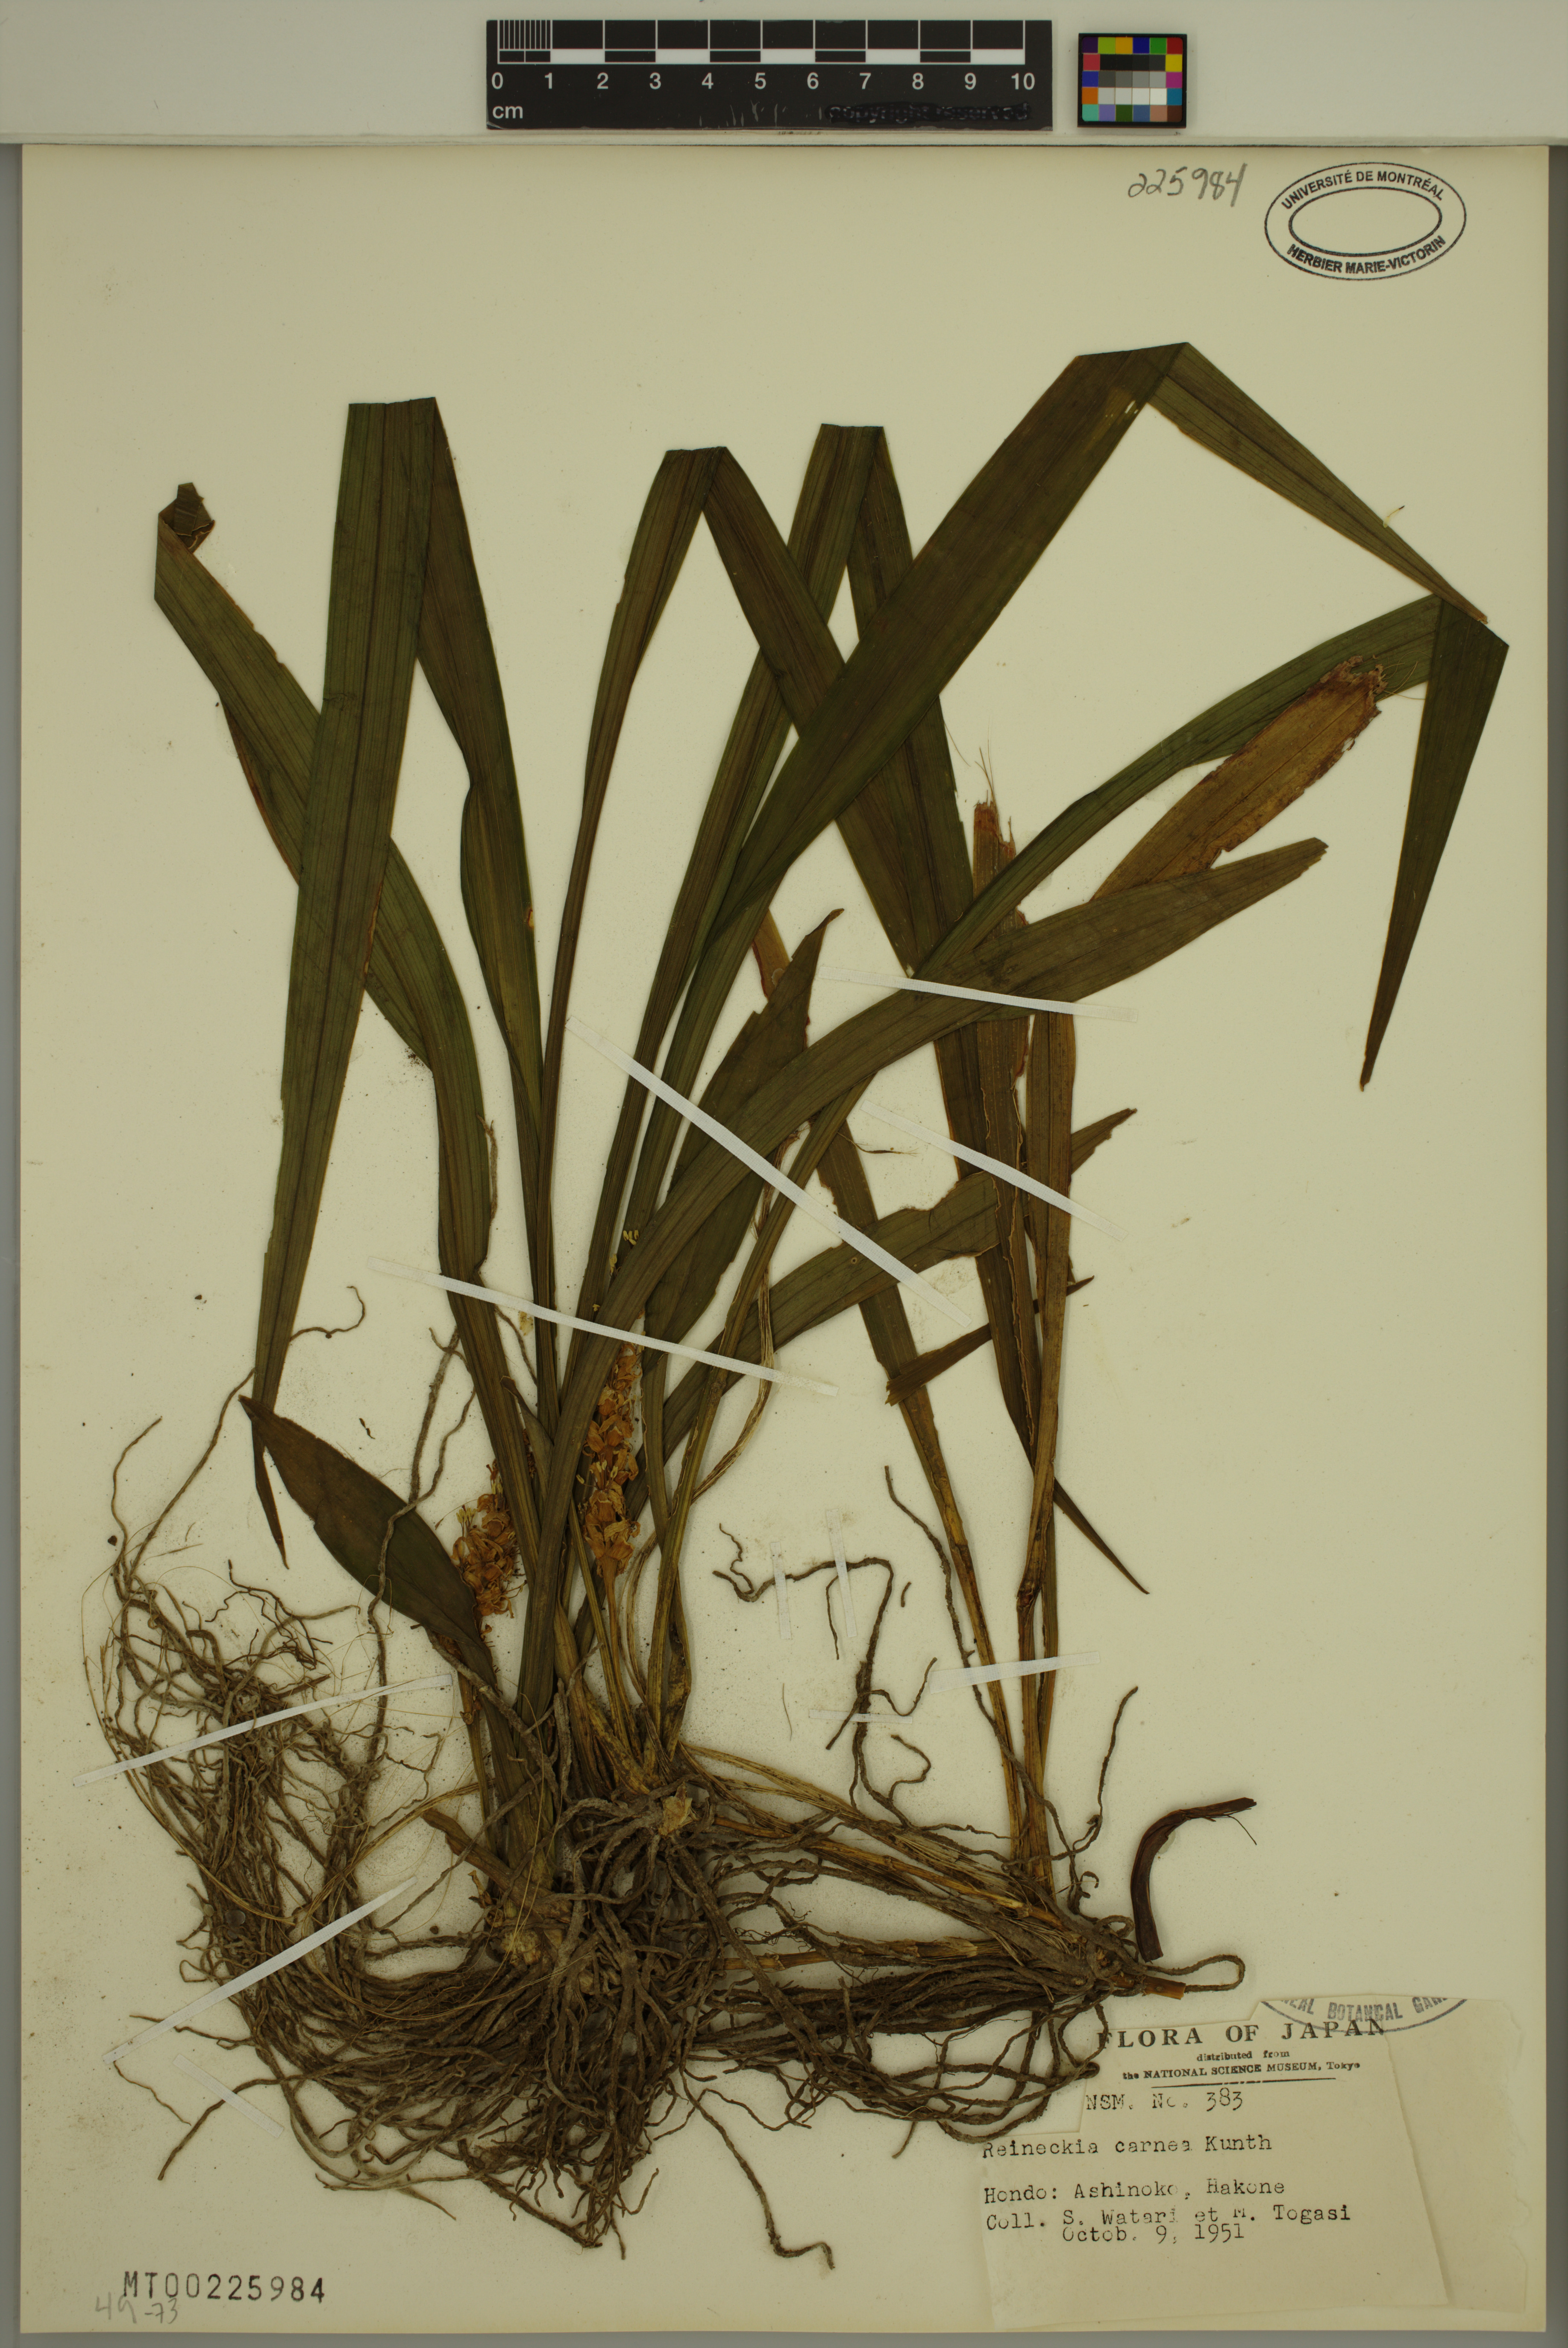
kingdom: Plantae
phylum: Tracheophyta
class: Liliopsida
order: Asparagales
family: Asparagaceae
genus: Reineckea
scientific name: Reineckea carnea
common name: Reineckea
